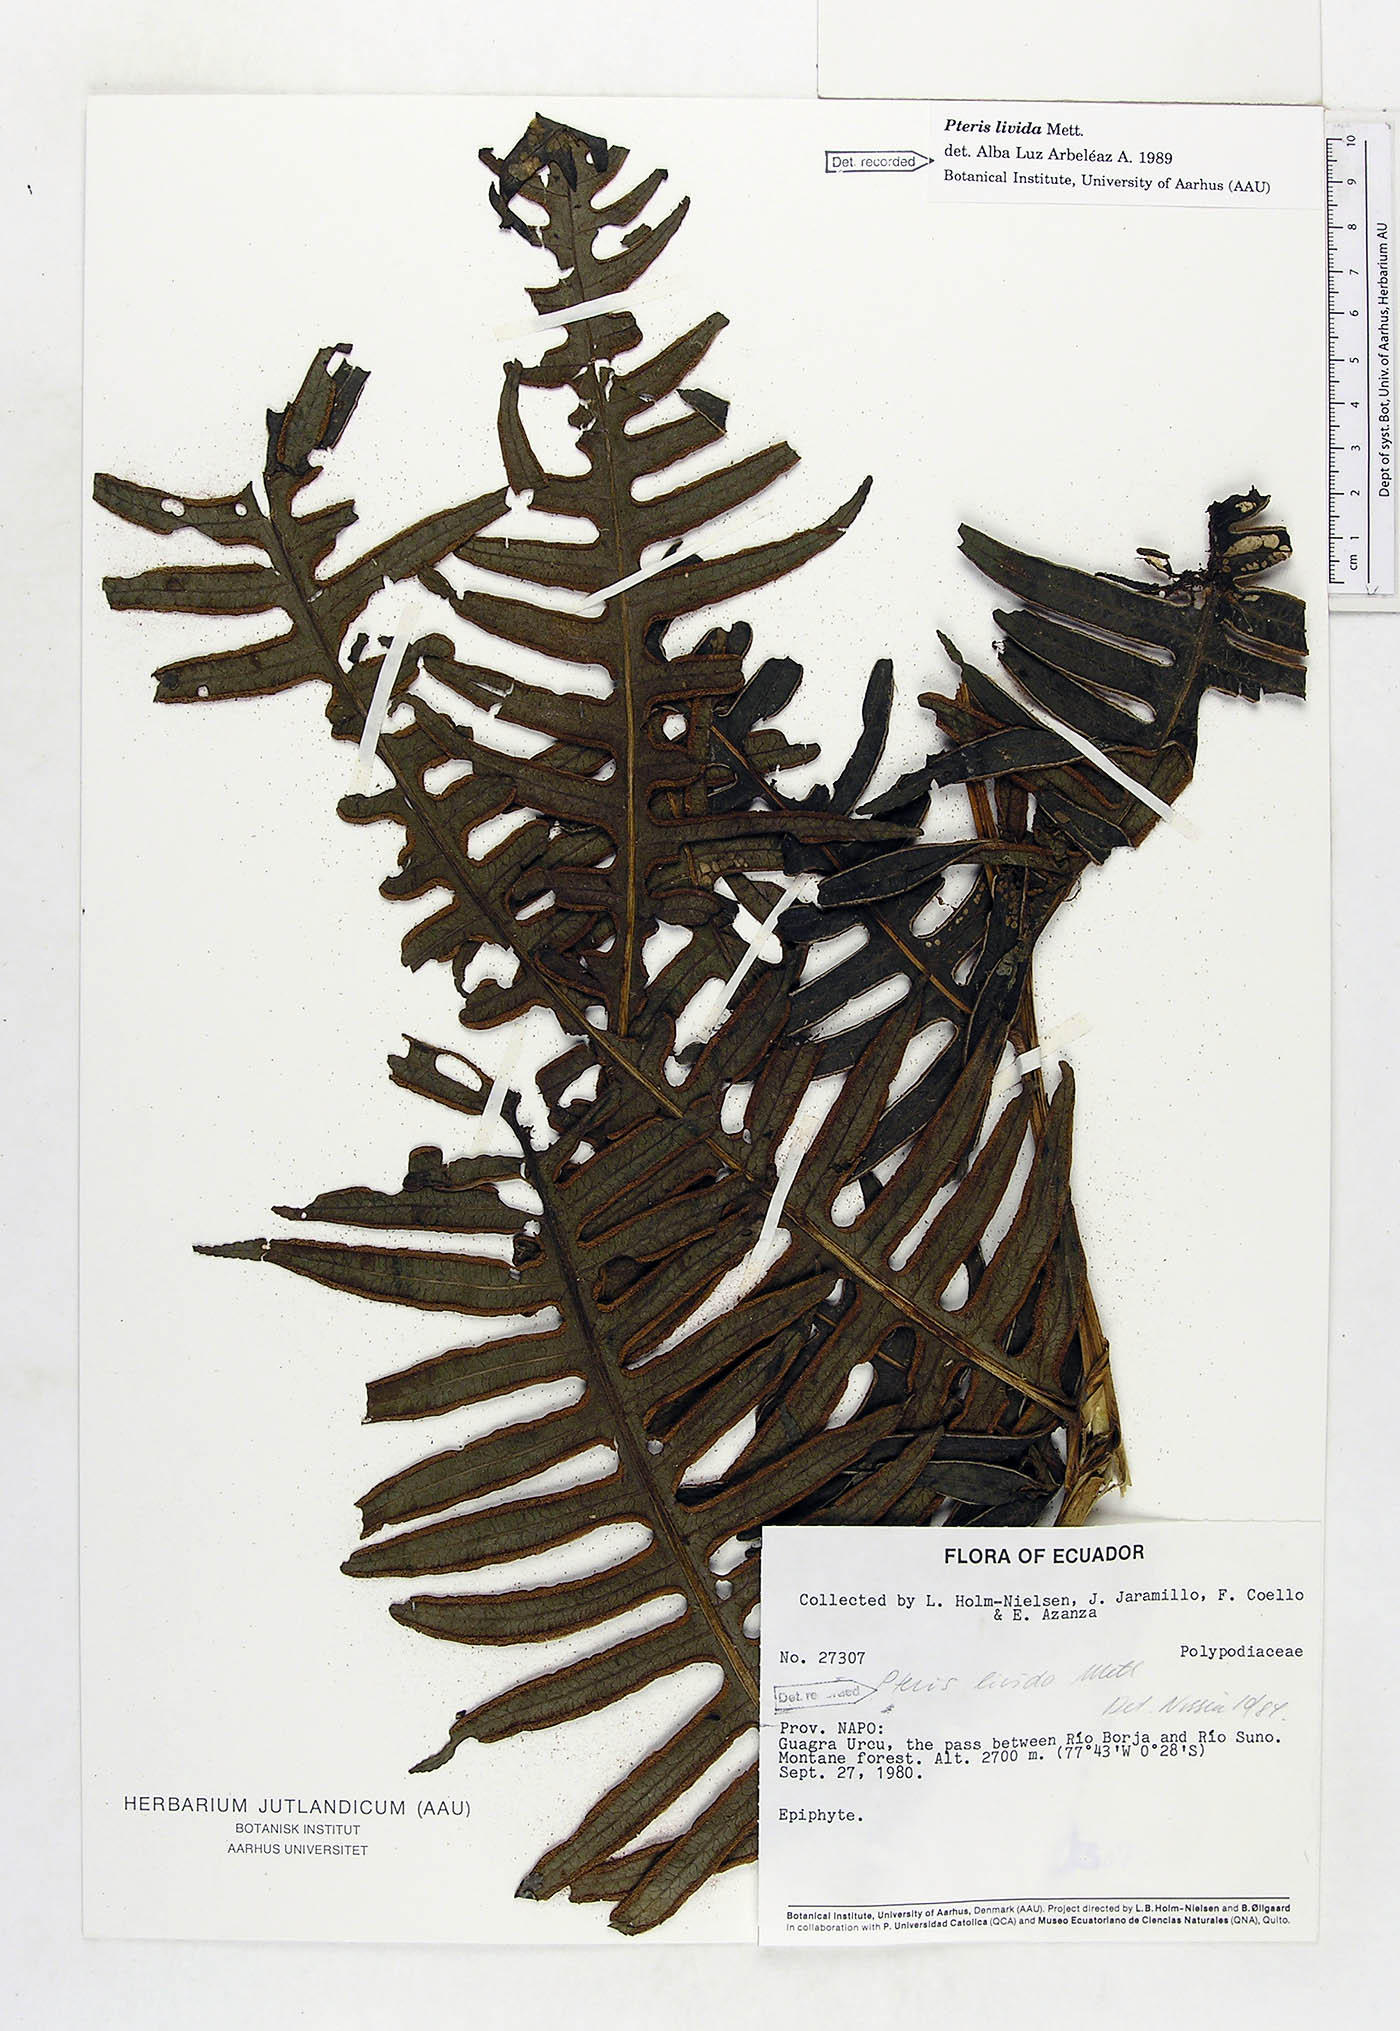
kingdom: Plantae
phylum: Tracheophyta
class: Polypodiopsida
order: Polypodiales
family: Pteridaceae
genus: Pteris
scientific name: Pteris livida
